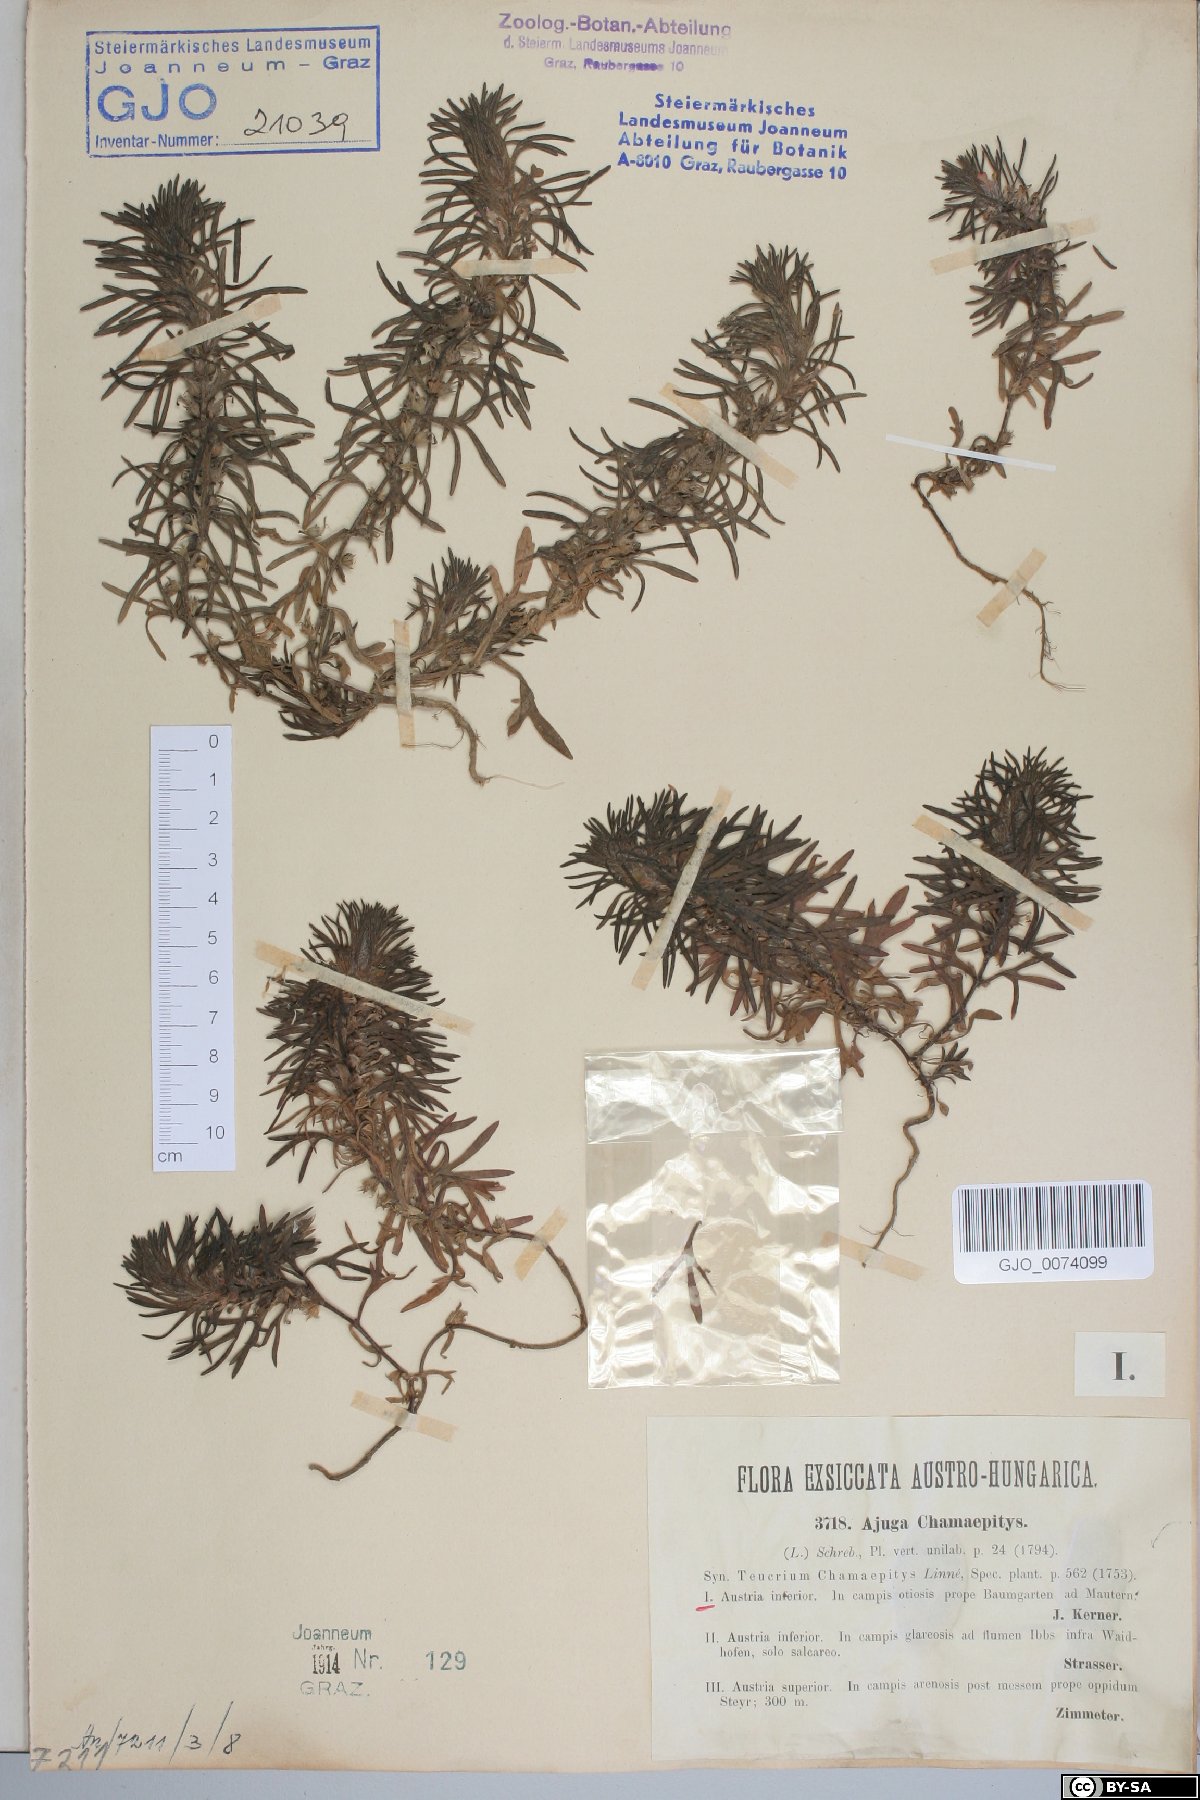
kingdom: Plantae
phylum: Tracheophyta
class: Magnoliopsida
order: Lamiales
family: Lamiaceae
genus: Ajuga
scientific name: Ajuga chamaepitys
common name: Ground-pine
